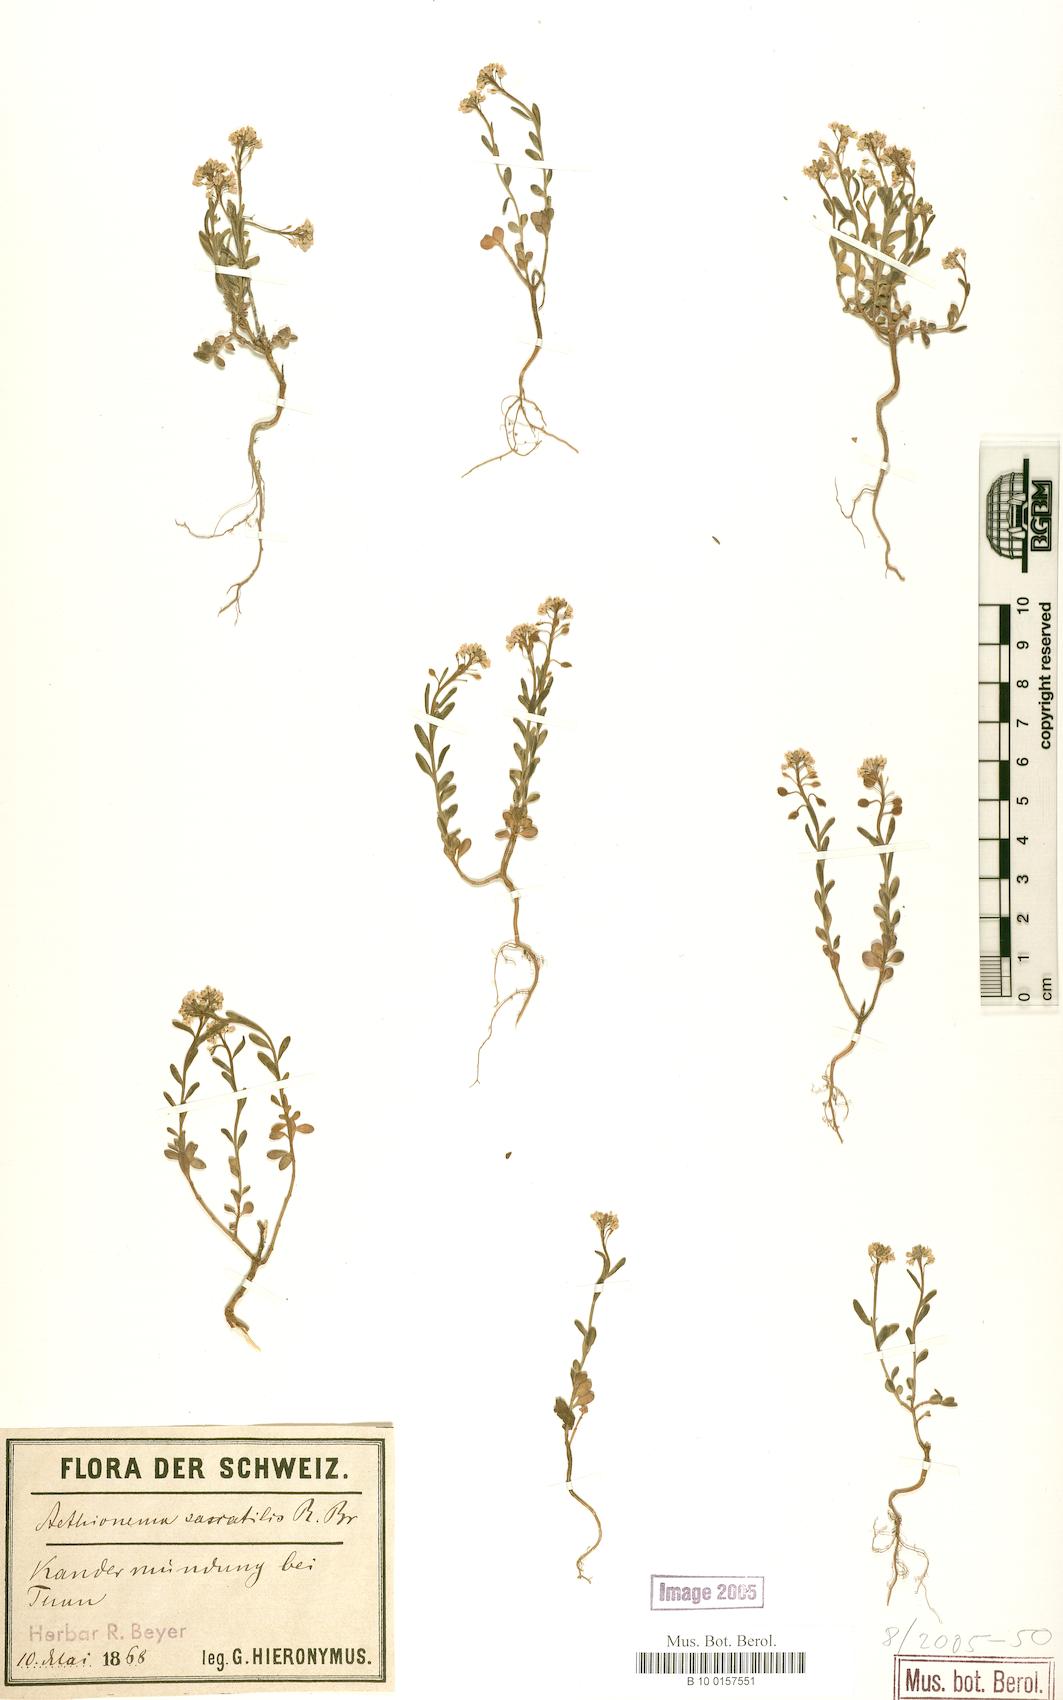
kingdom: Plantae
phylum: Tracheophyta
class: Magnoliopsida
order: Brassicales
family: Brassicaceae
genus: Aethionema
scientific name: Aethionema saxatile
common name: Burnt candytuft
